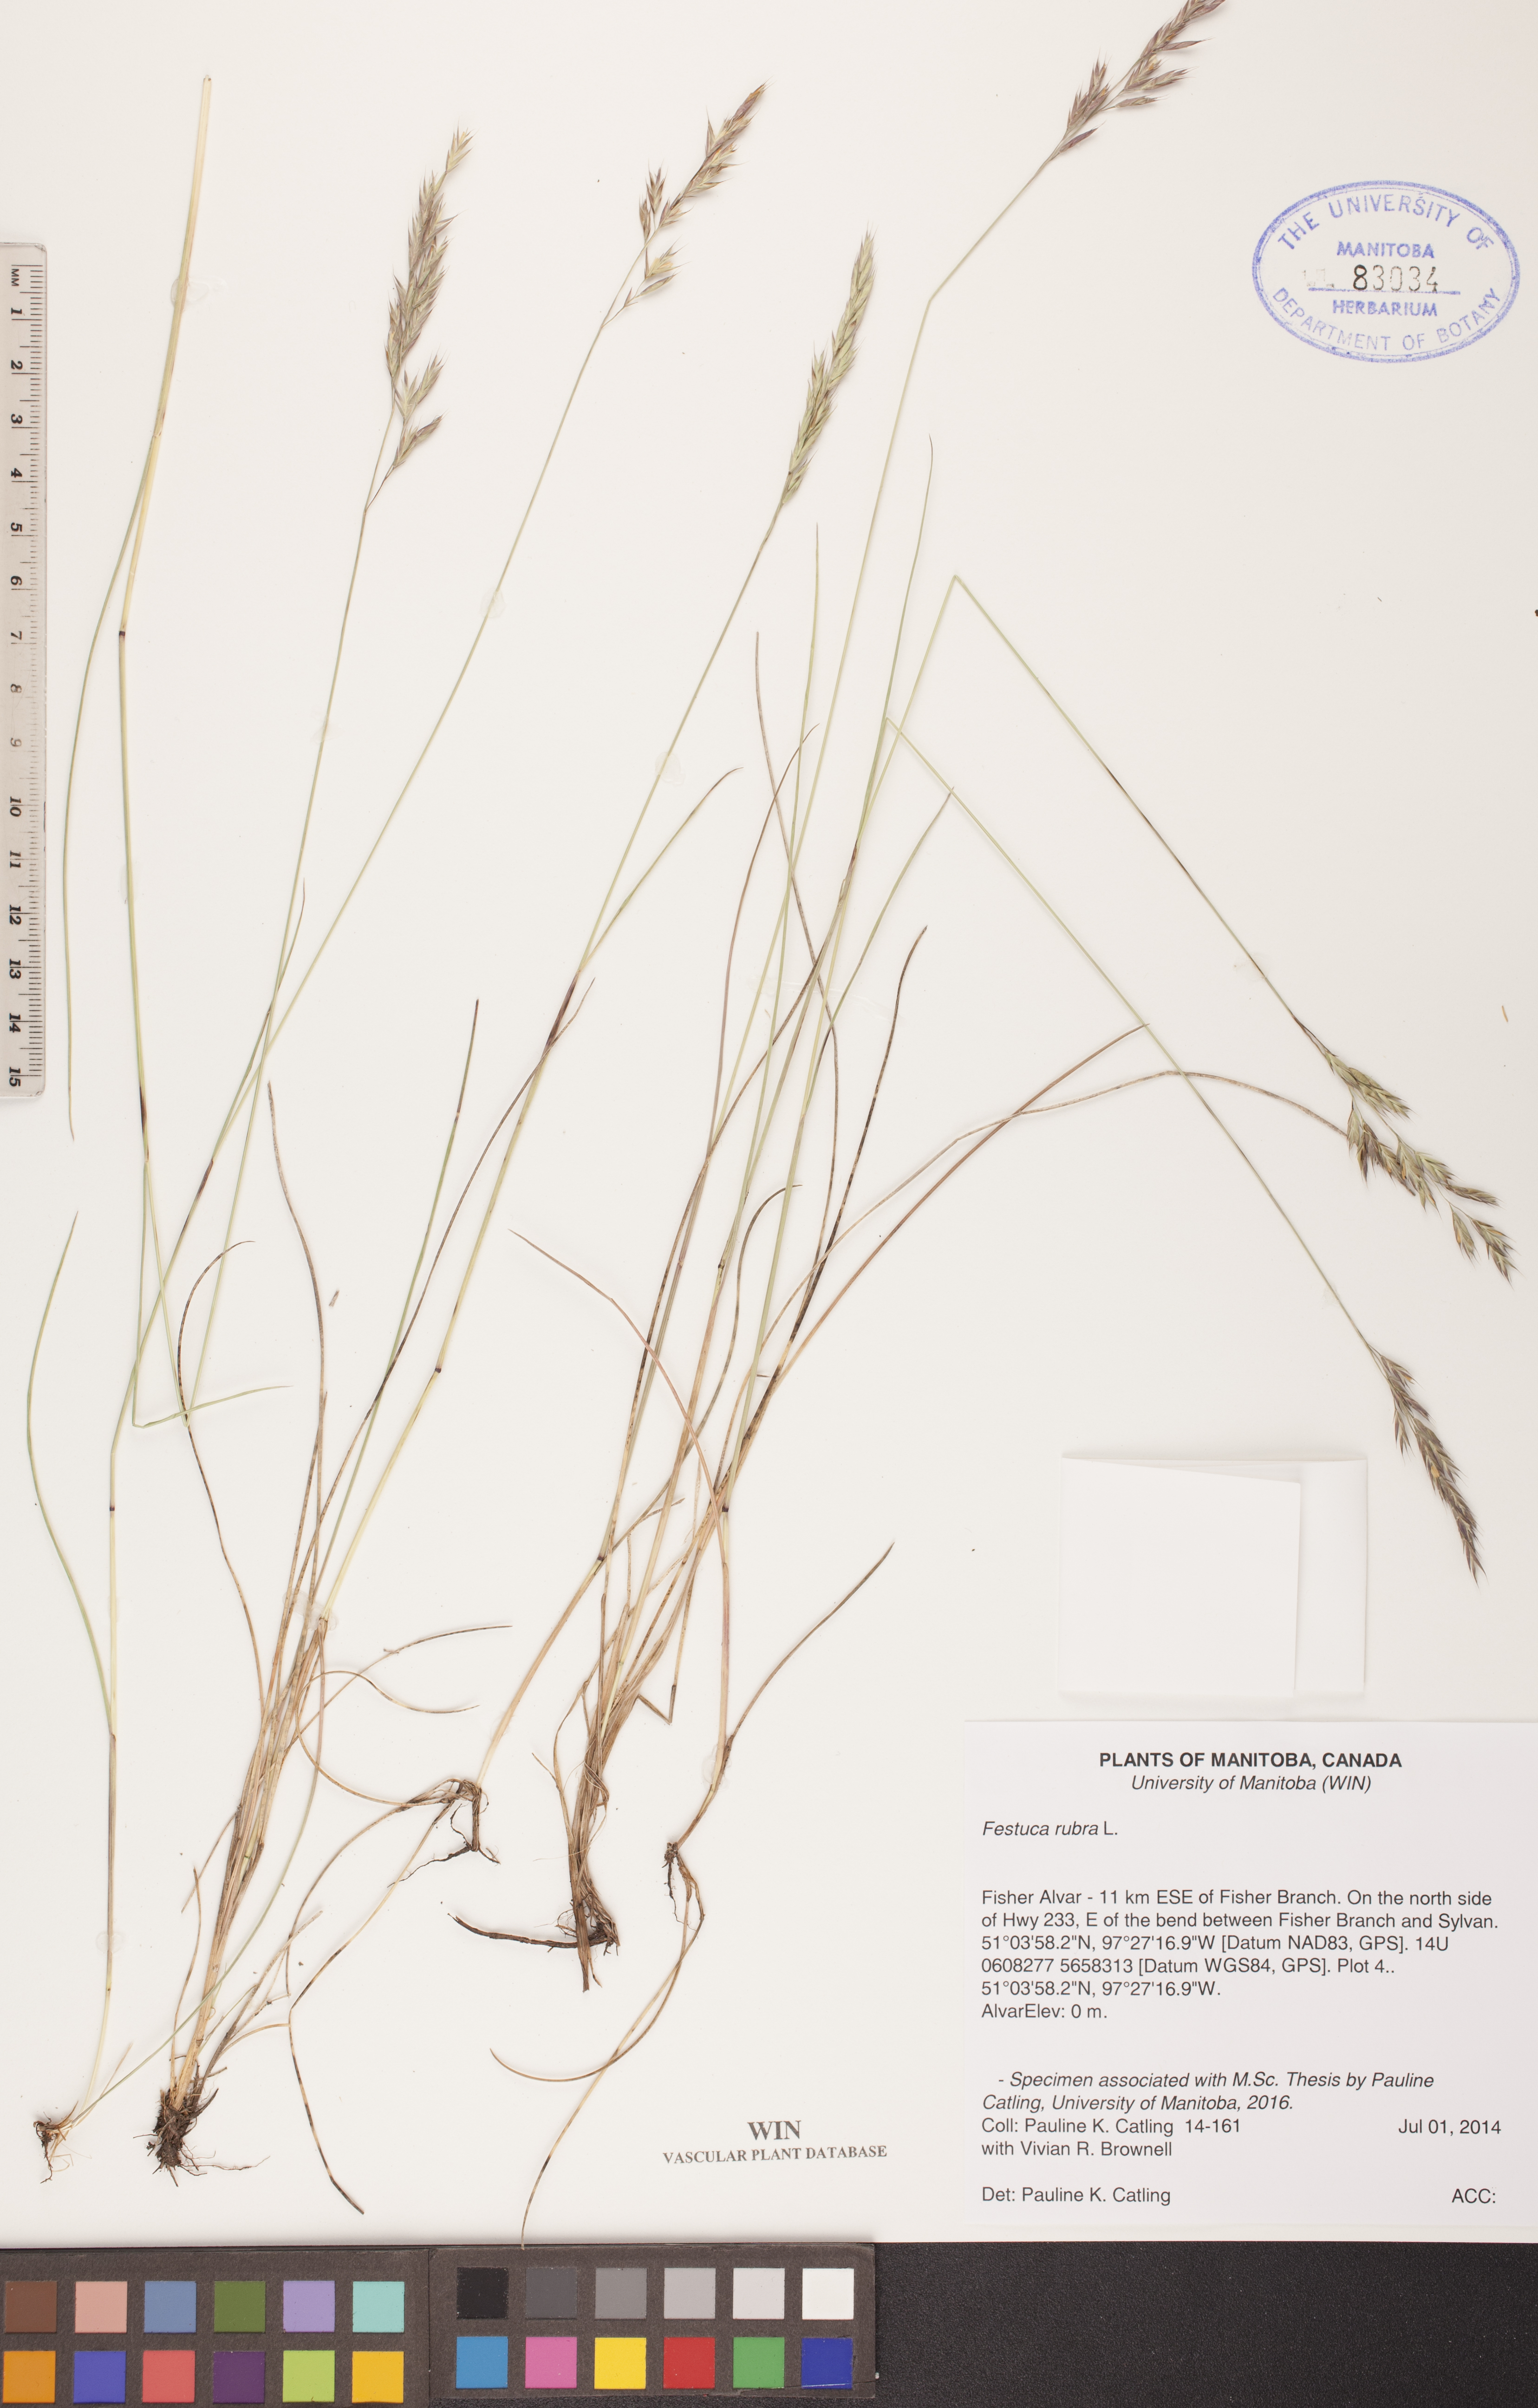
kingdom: Plantae
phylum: Tracheophyta
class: Liliopsida
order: Poales
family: Poaceae
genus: Festuca
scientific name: Festuca rubra
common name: Red fescue
